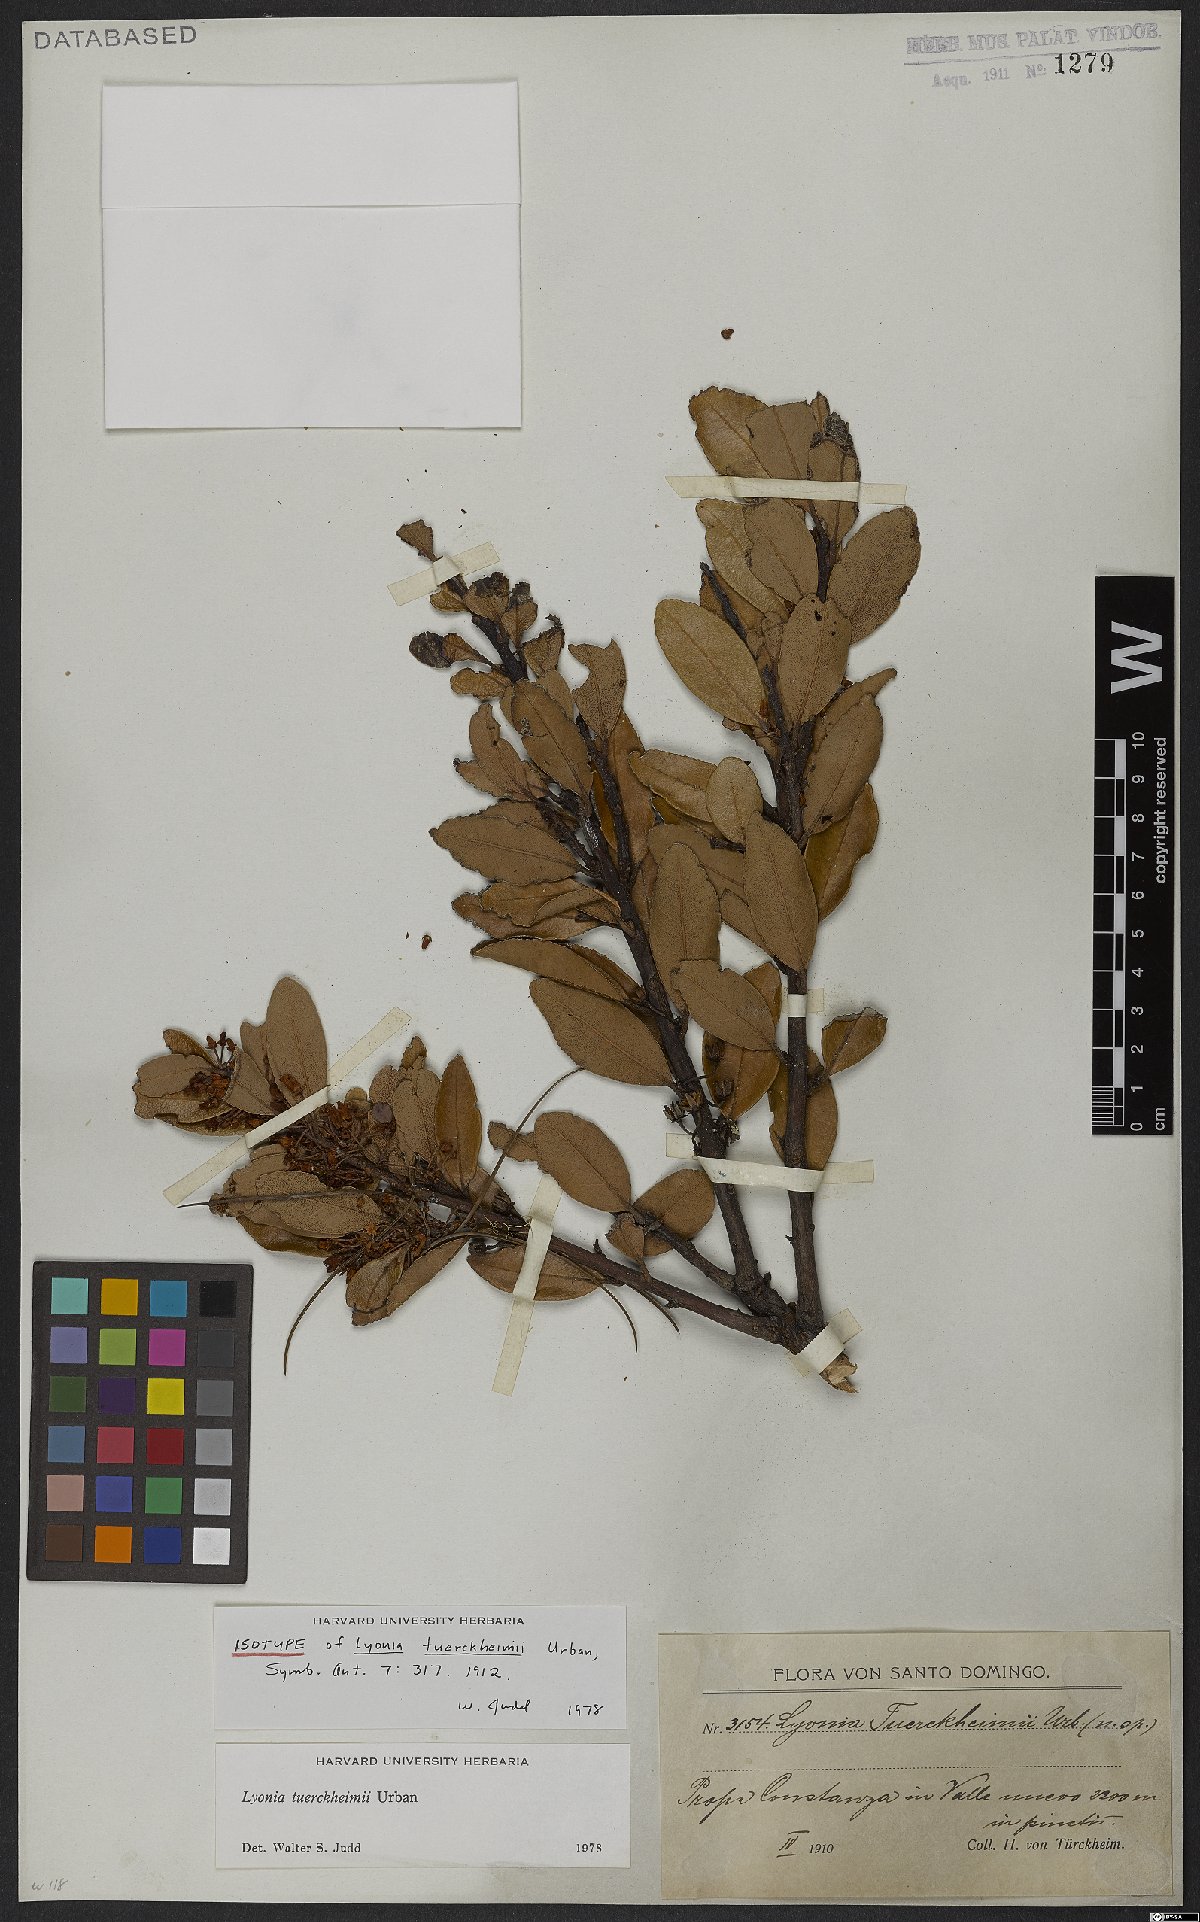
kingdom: Plantae
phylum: Tracheophyta
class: Magnoliopsida
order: Ericales
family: Ericaceae
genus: Lyonia
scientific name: Lyonia tuerckheimii
